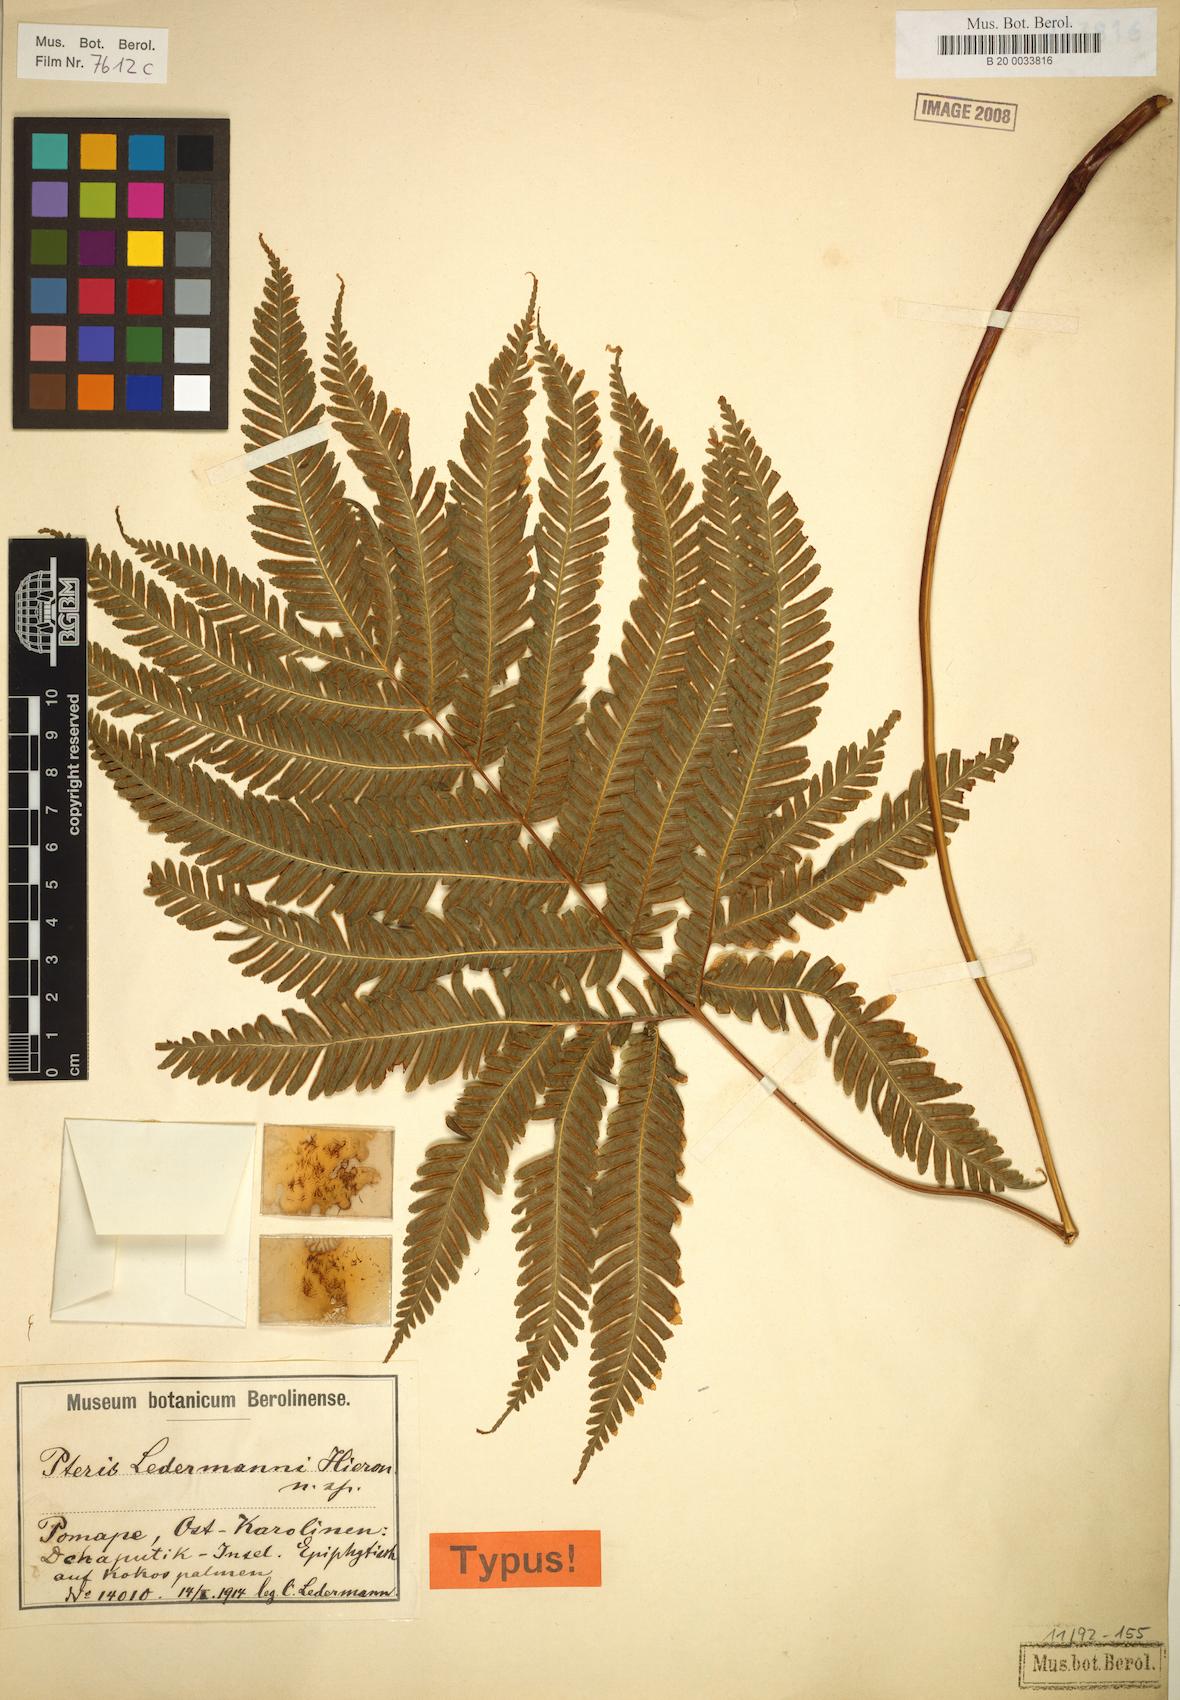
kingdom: Plantae
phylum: Tracheophyta
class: Polypodiopsida
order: Polypodiales
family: Pteridaceae
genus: Pteris
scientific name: Pteris
